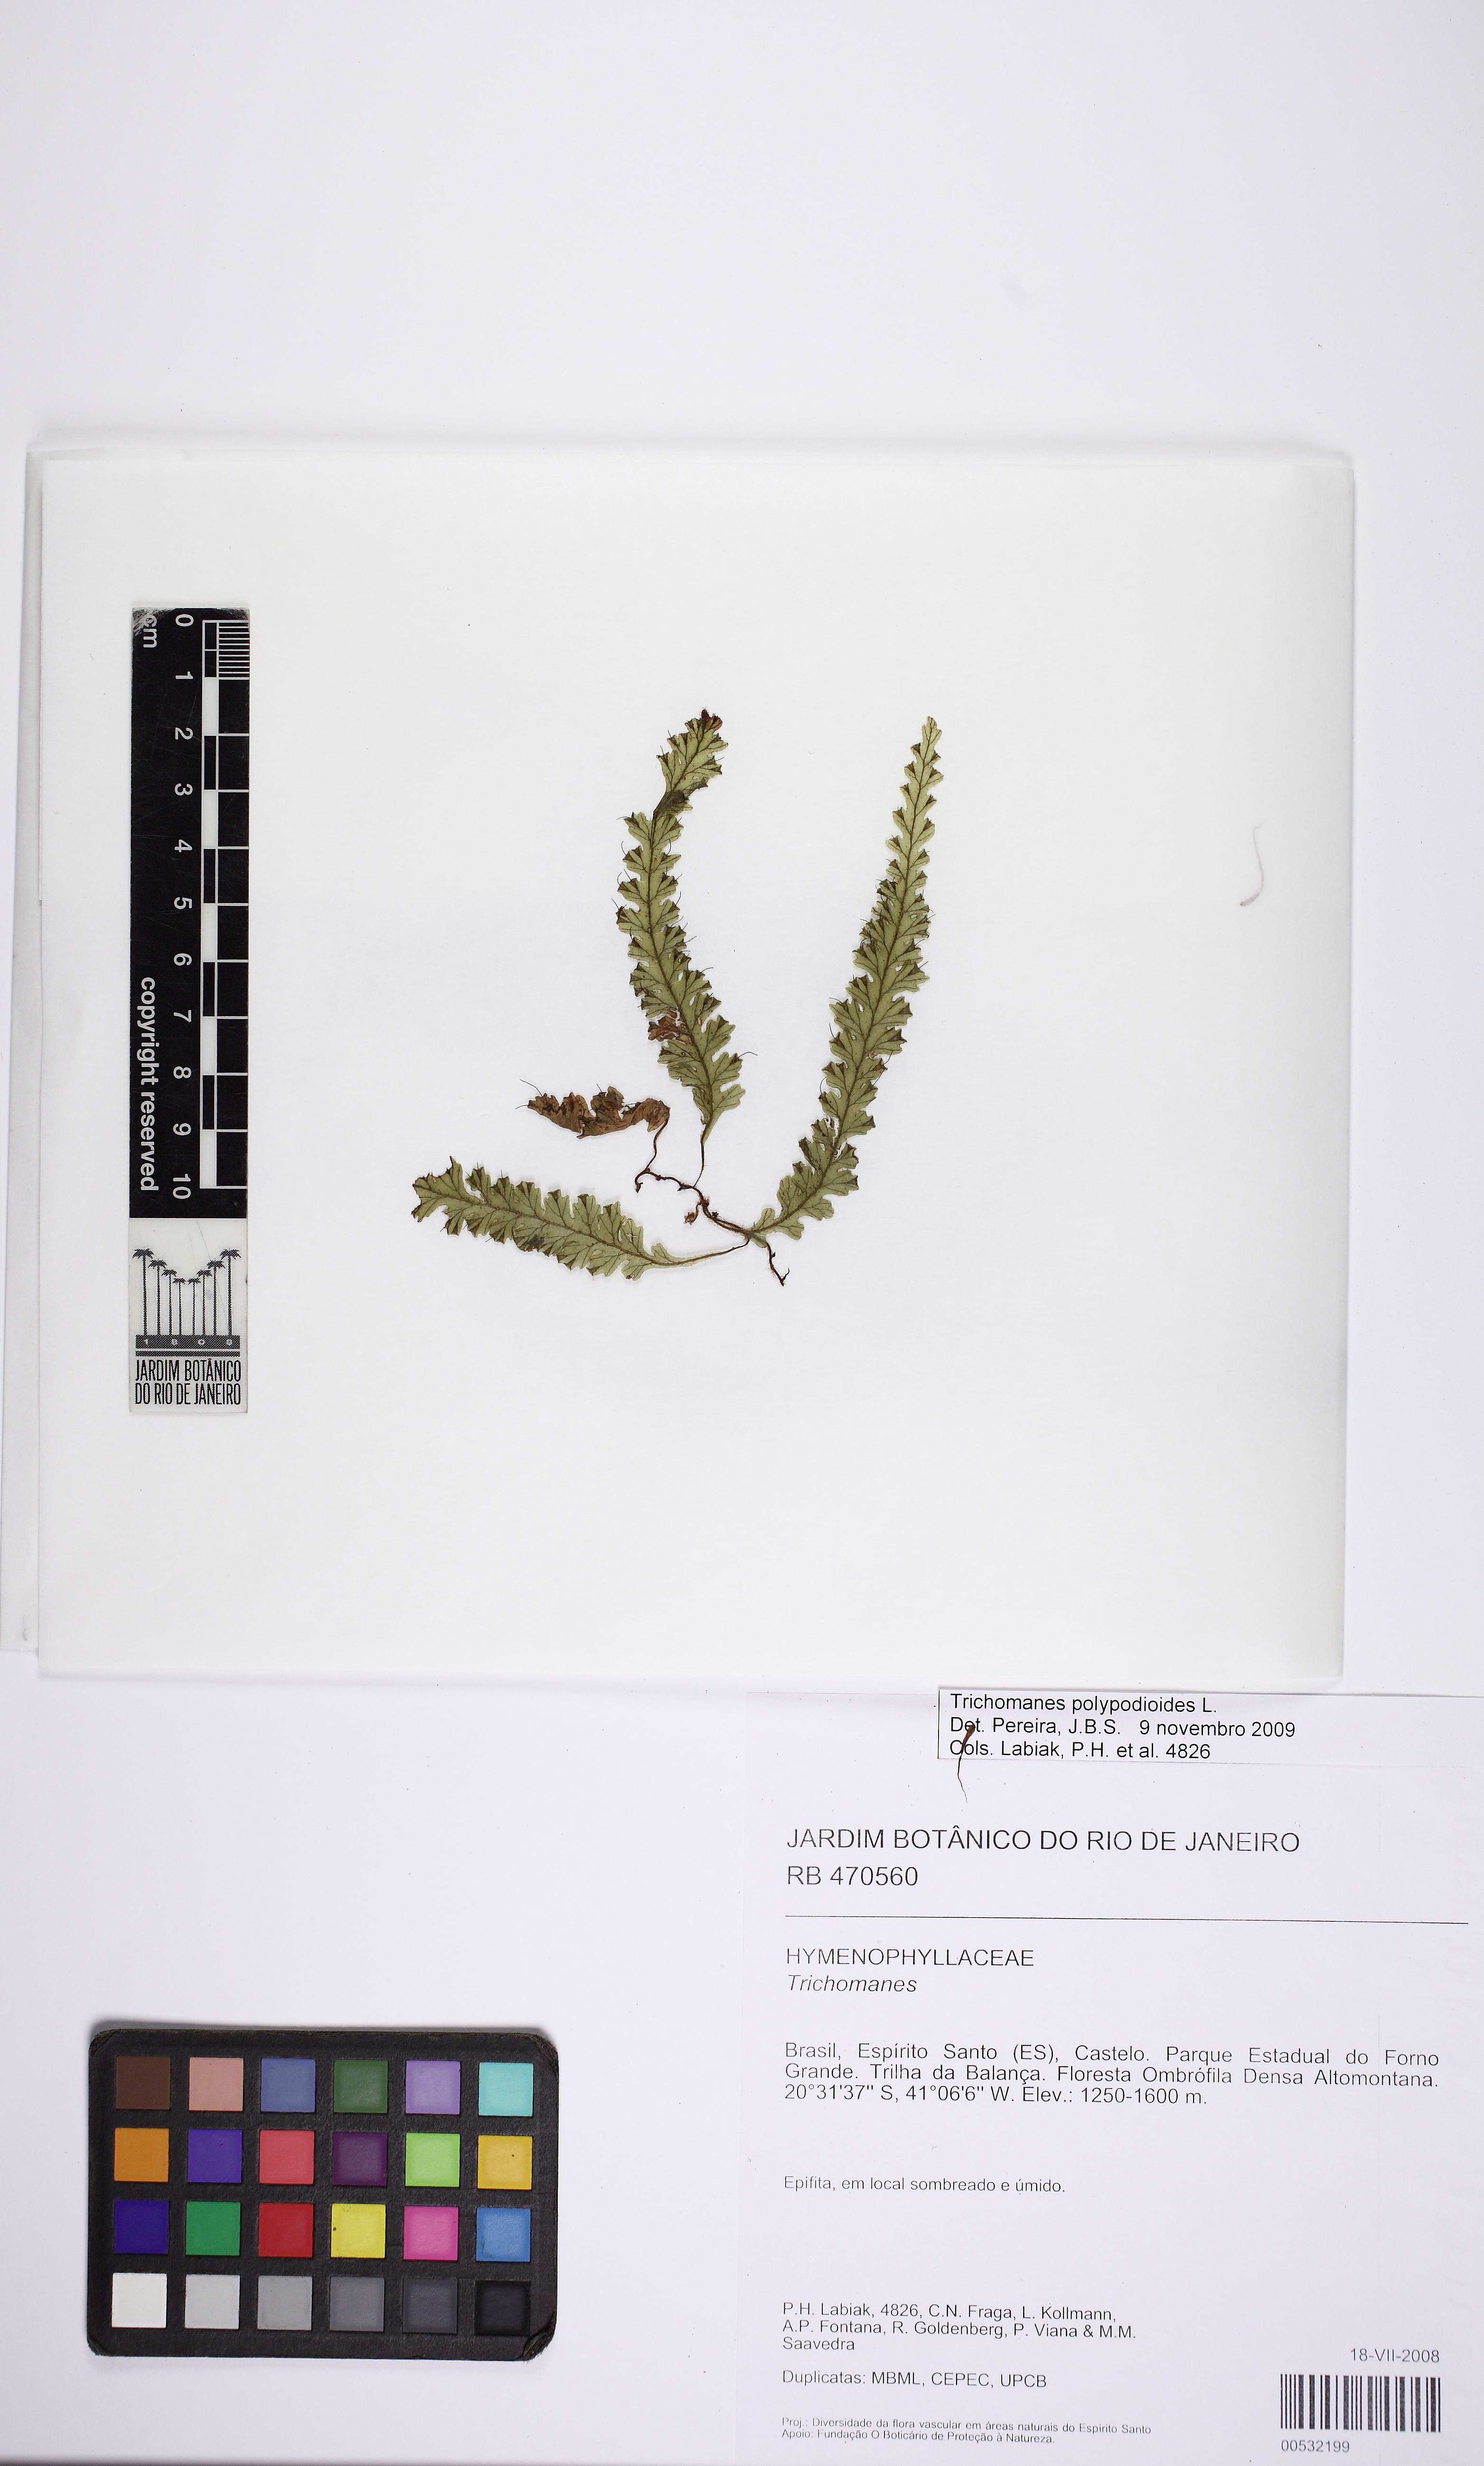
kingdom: Plantae
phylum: Tracheophyta
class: Polypodiopsida
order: Hymenophyllales
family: Hymenophyllaceae
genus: Trichomanes
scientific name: Trichomanes polypodioides
